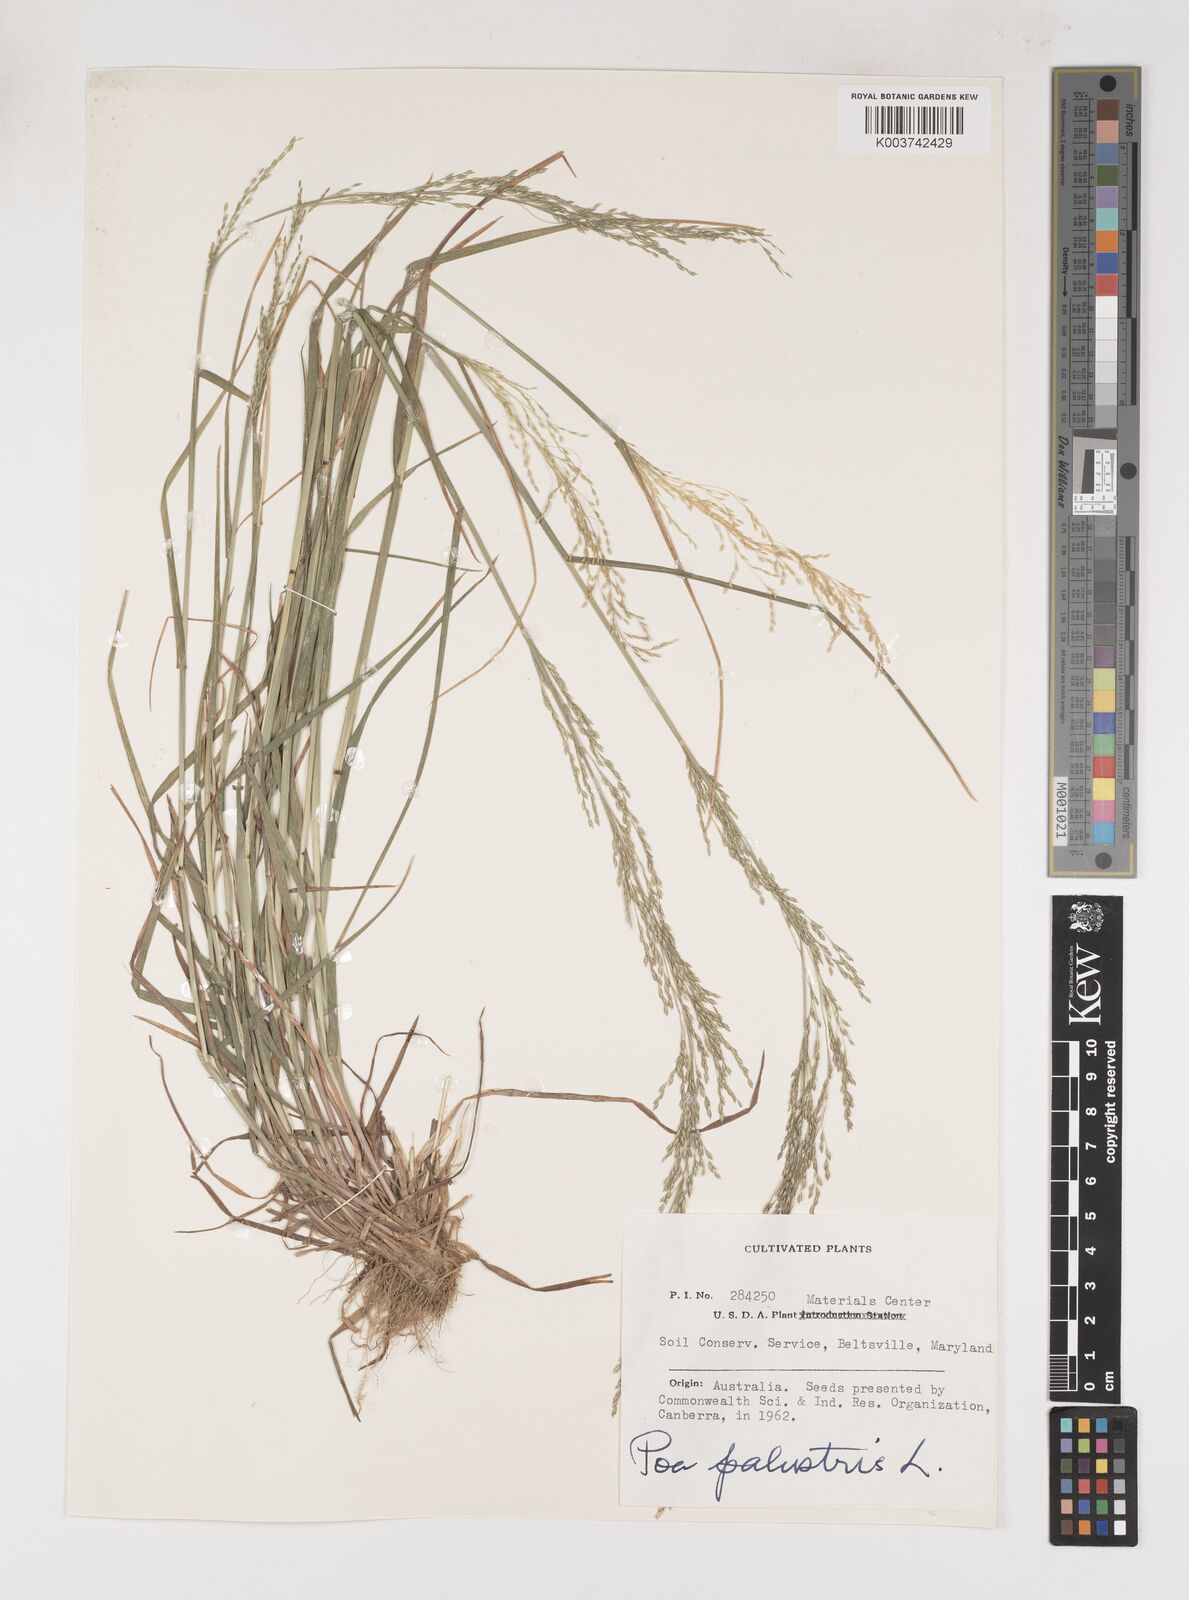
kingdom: Plantae
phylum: Tracheophyta
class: Liliopsida
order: Poales
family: Poaceae
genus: Poa
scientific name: Poa palustris
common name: Swamp meadow-grass
